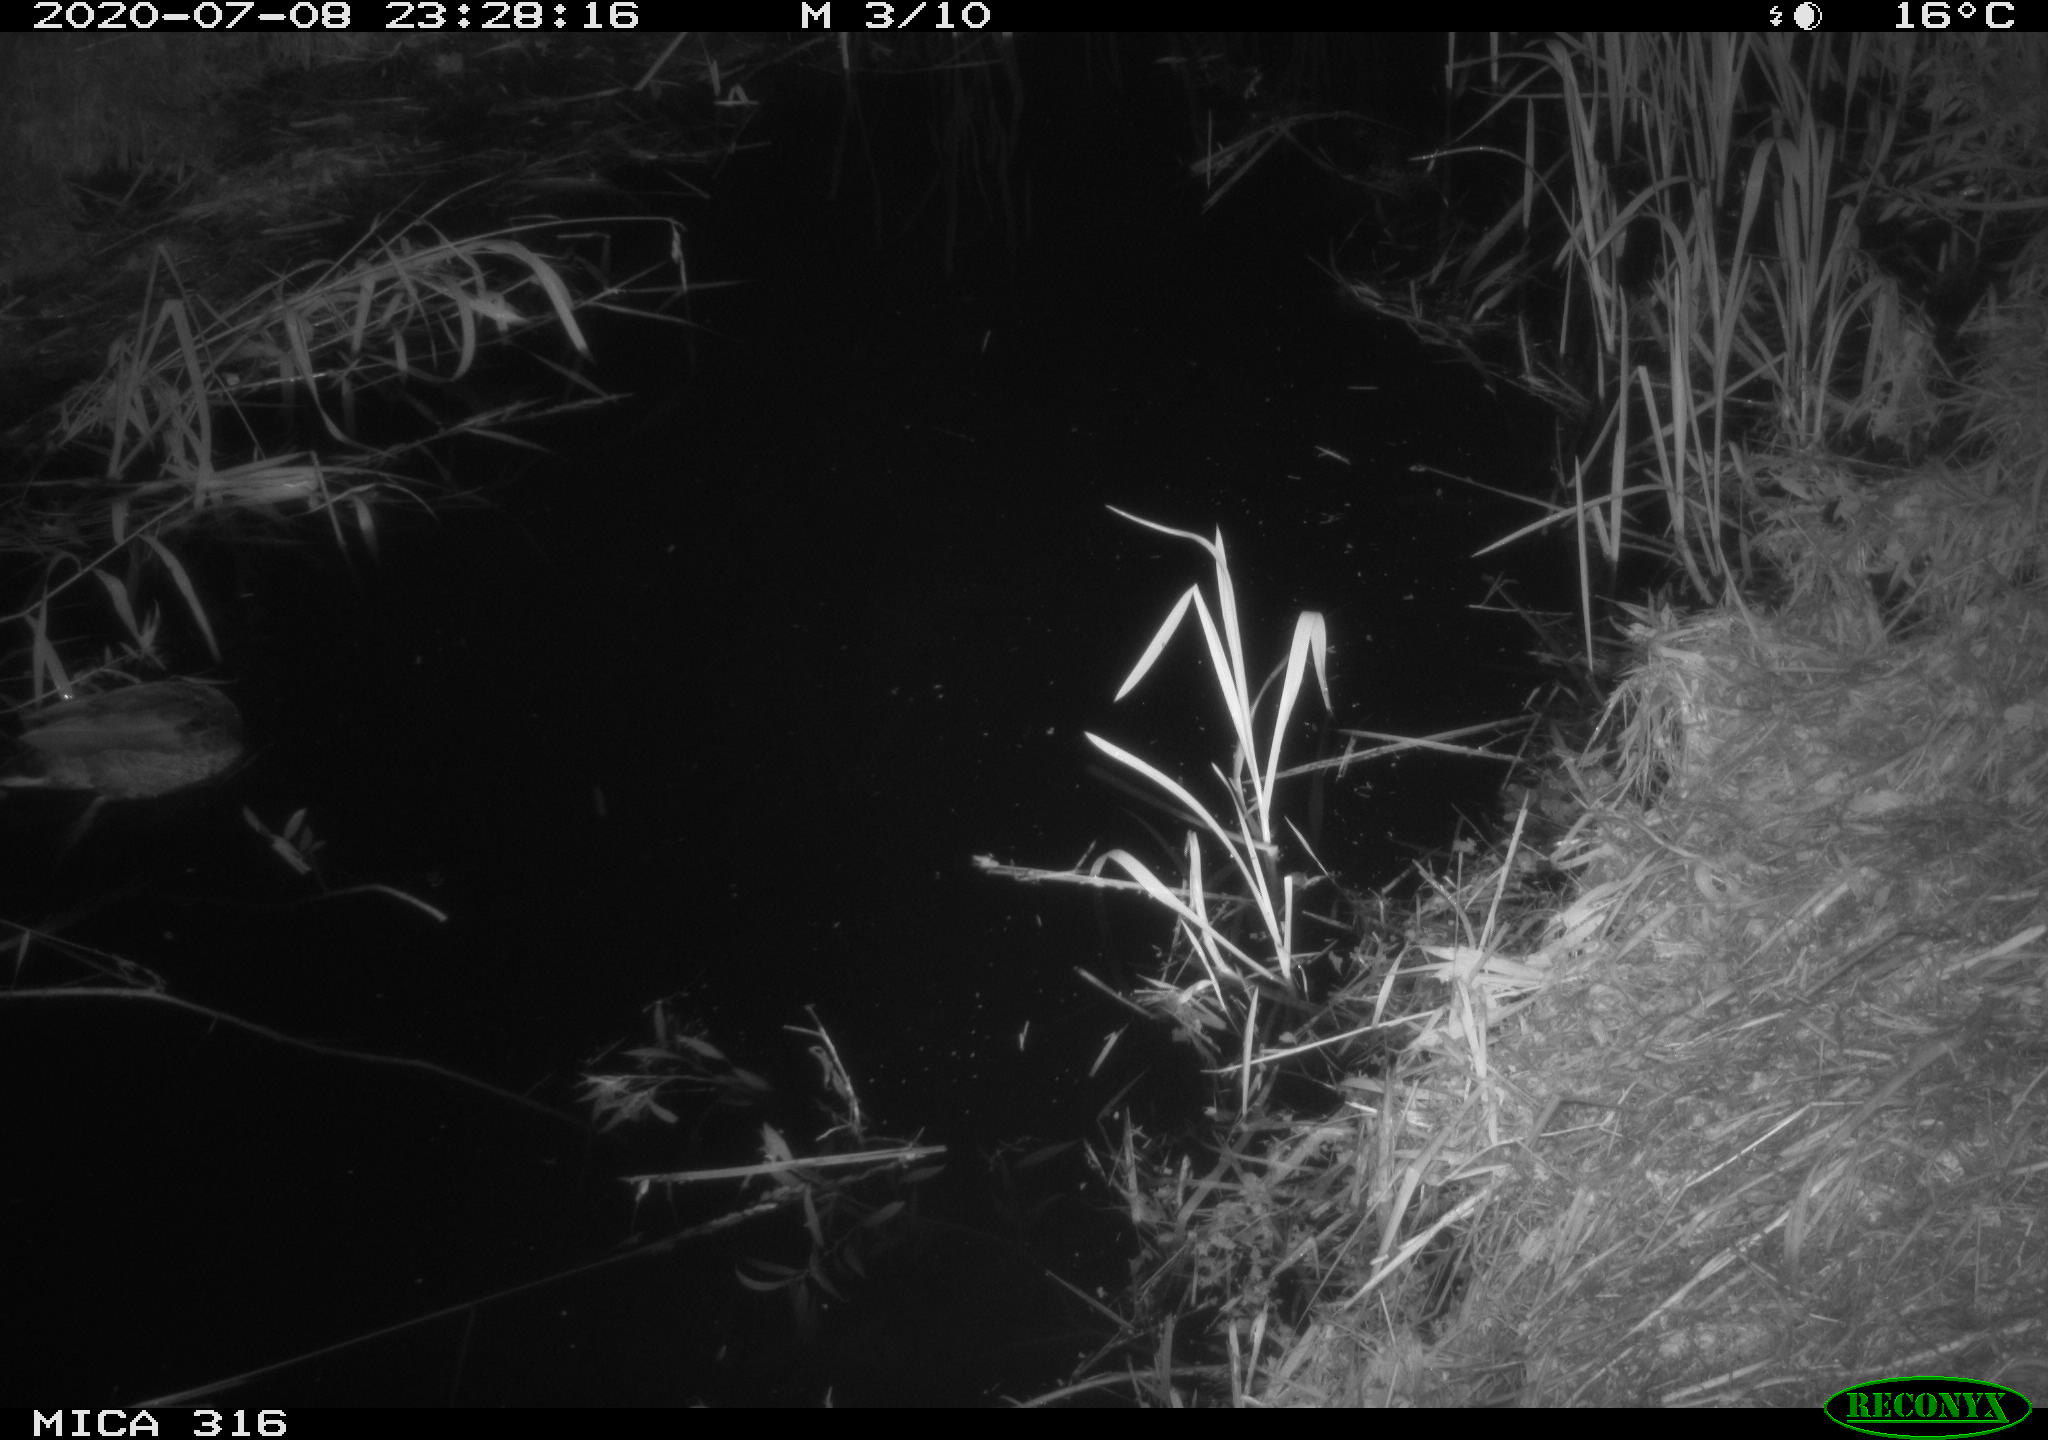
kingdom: Animalia
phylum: Chordata
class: Aves
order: Anseriformes
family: Anatidae
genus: Anas
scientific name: Anas platyrhynchos
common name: Mallard
